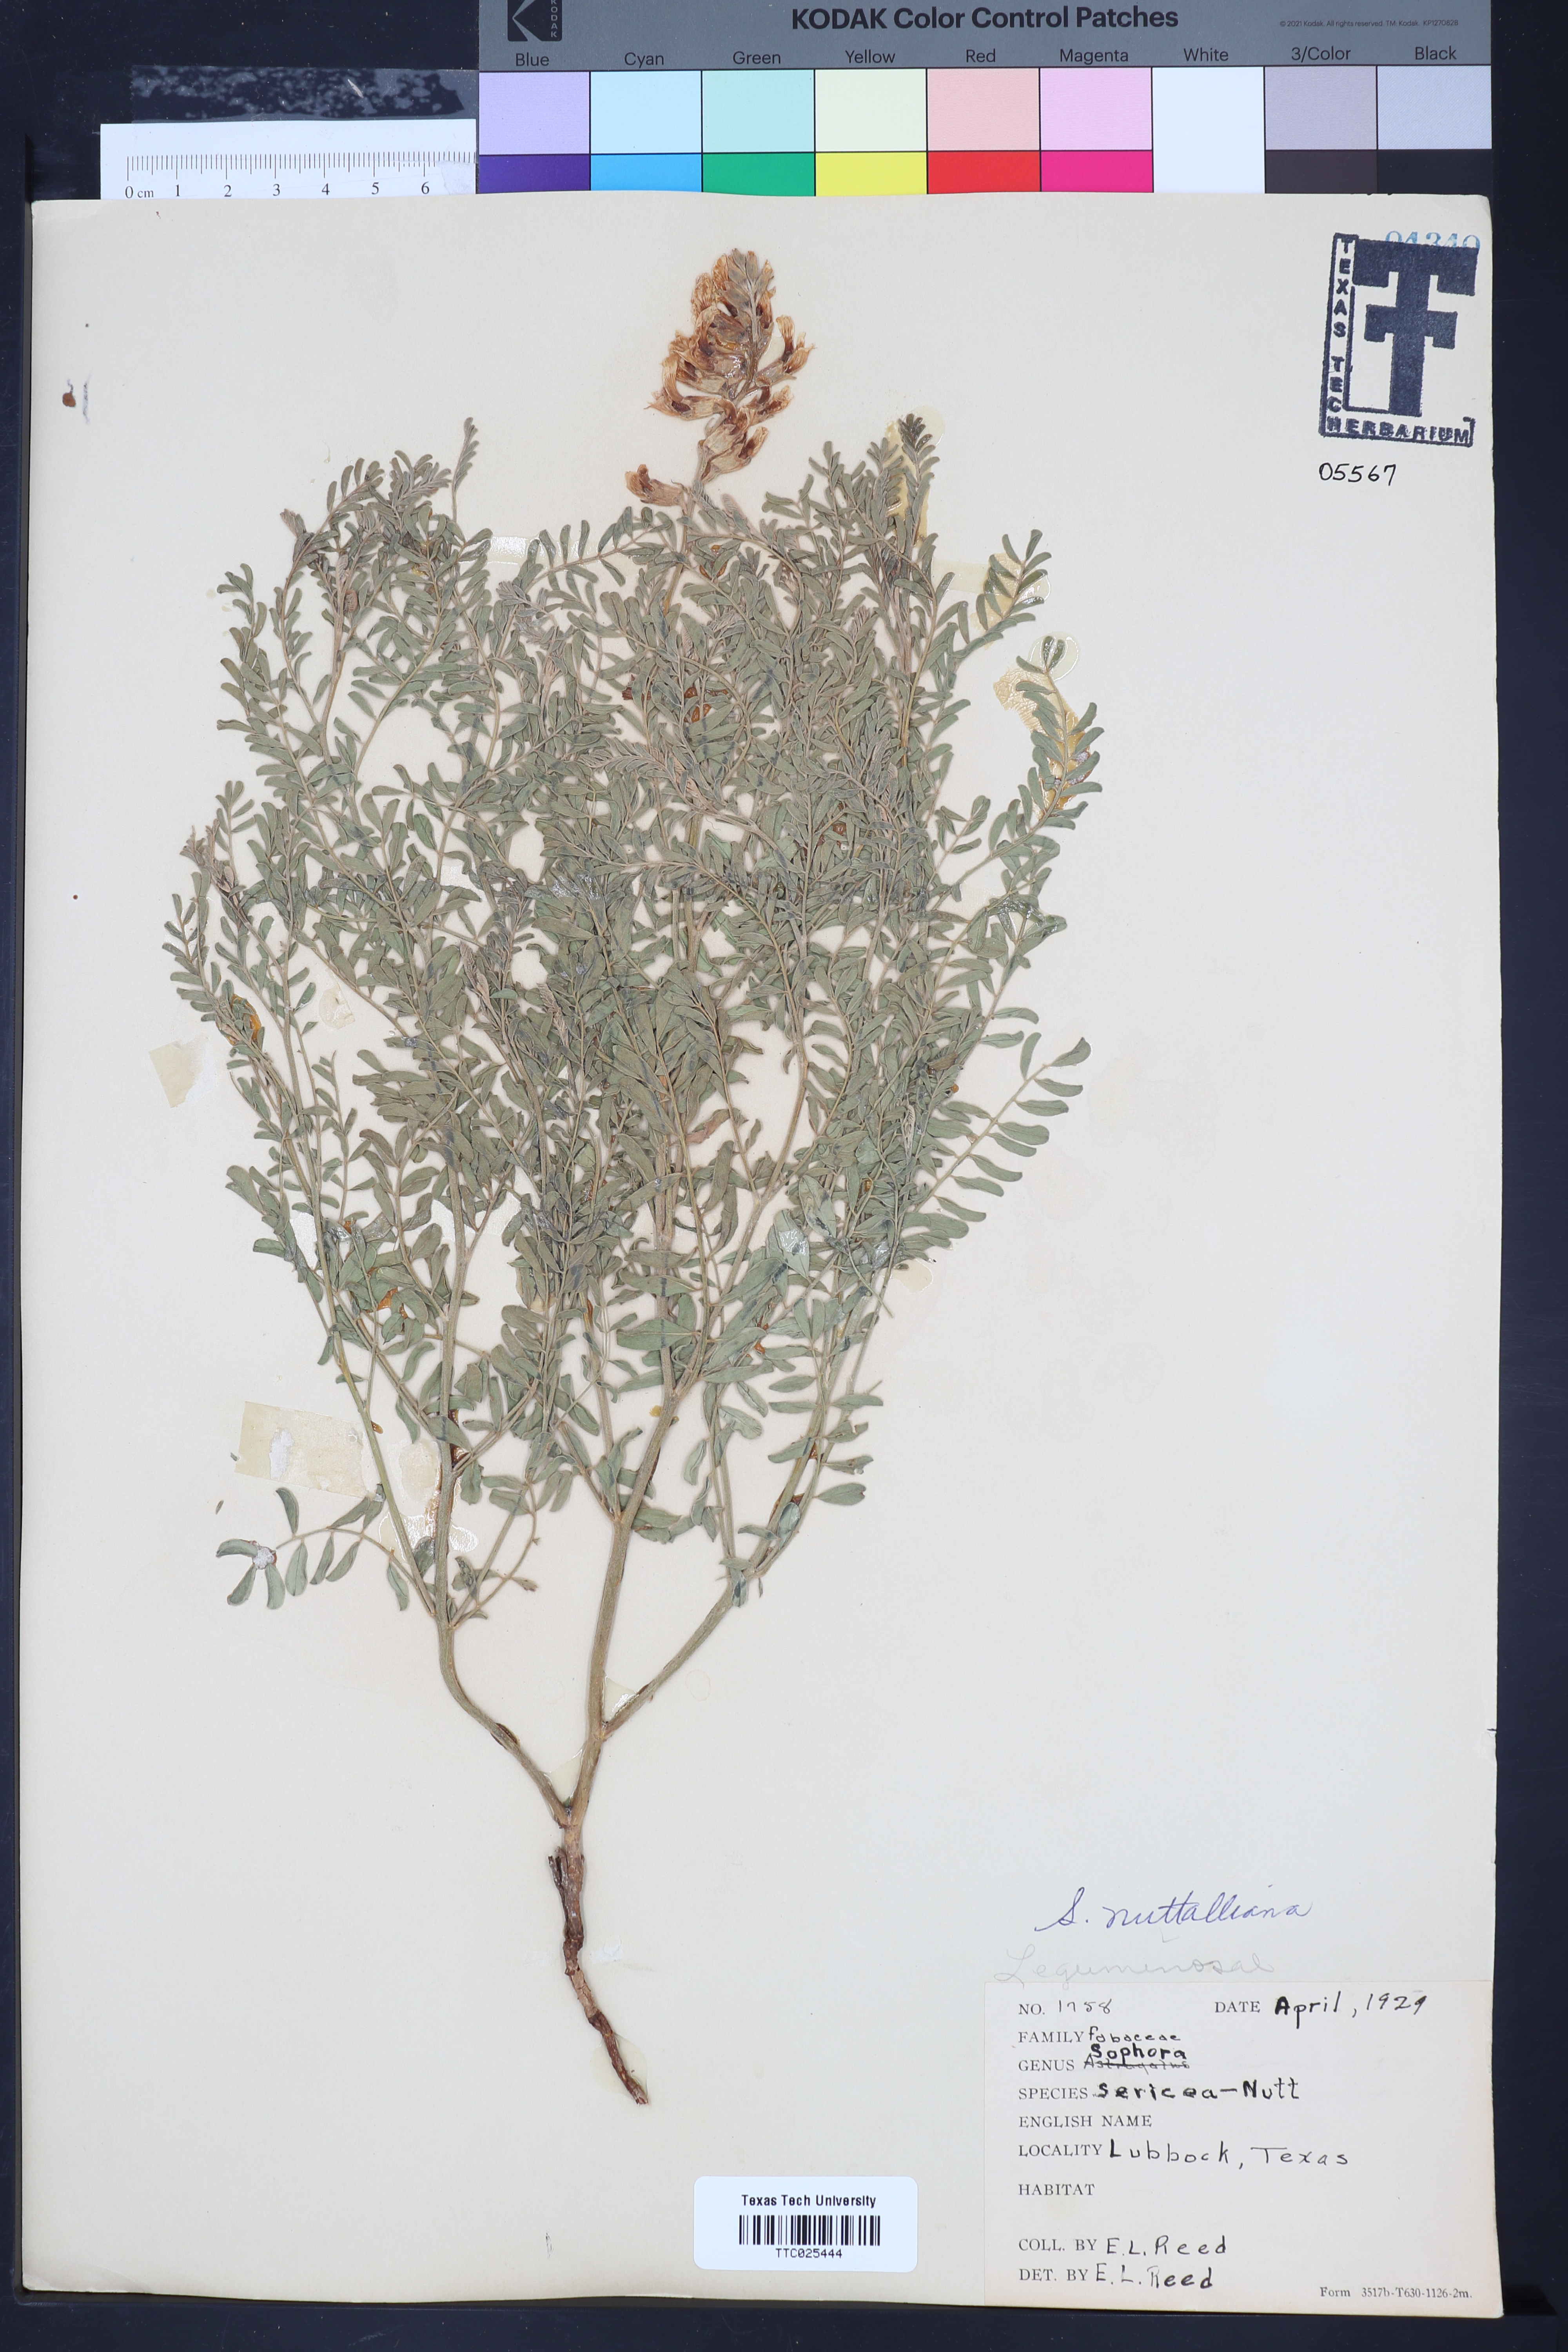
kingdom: Plantae
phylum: Tracheophyta
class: Magnoliopsida
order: Fabales
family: Fabaceae
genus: Sophora
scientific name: Sophora nuttalliana
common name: Silky sophora
